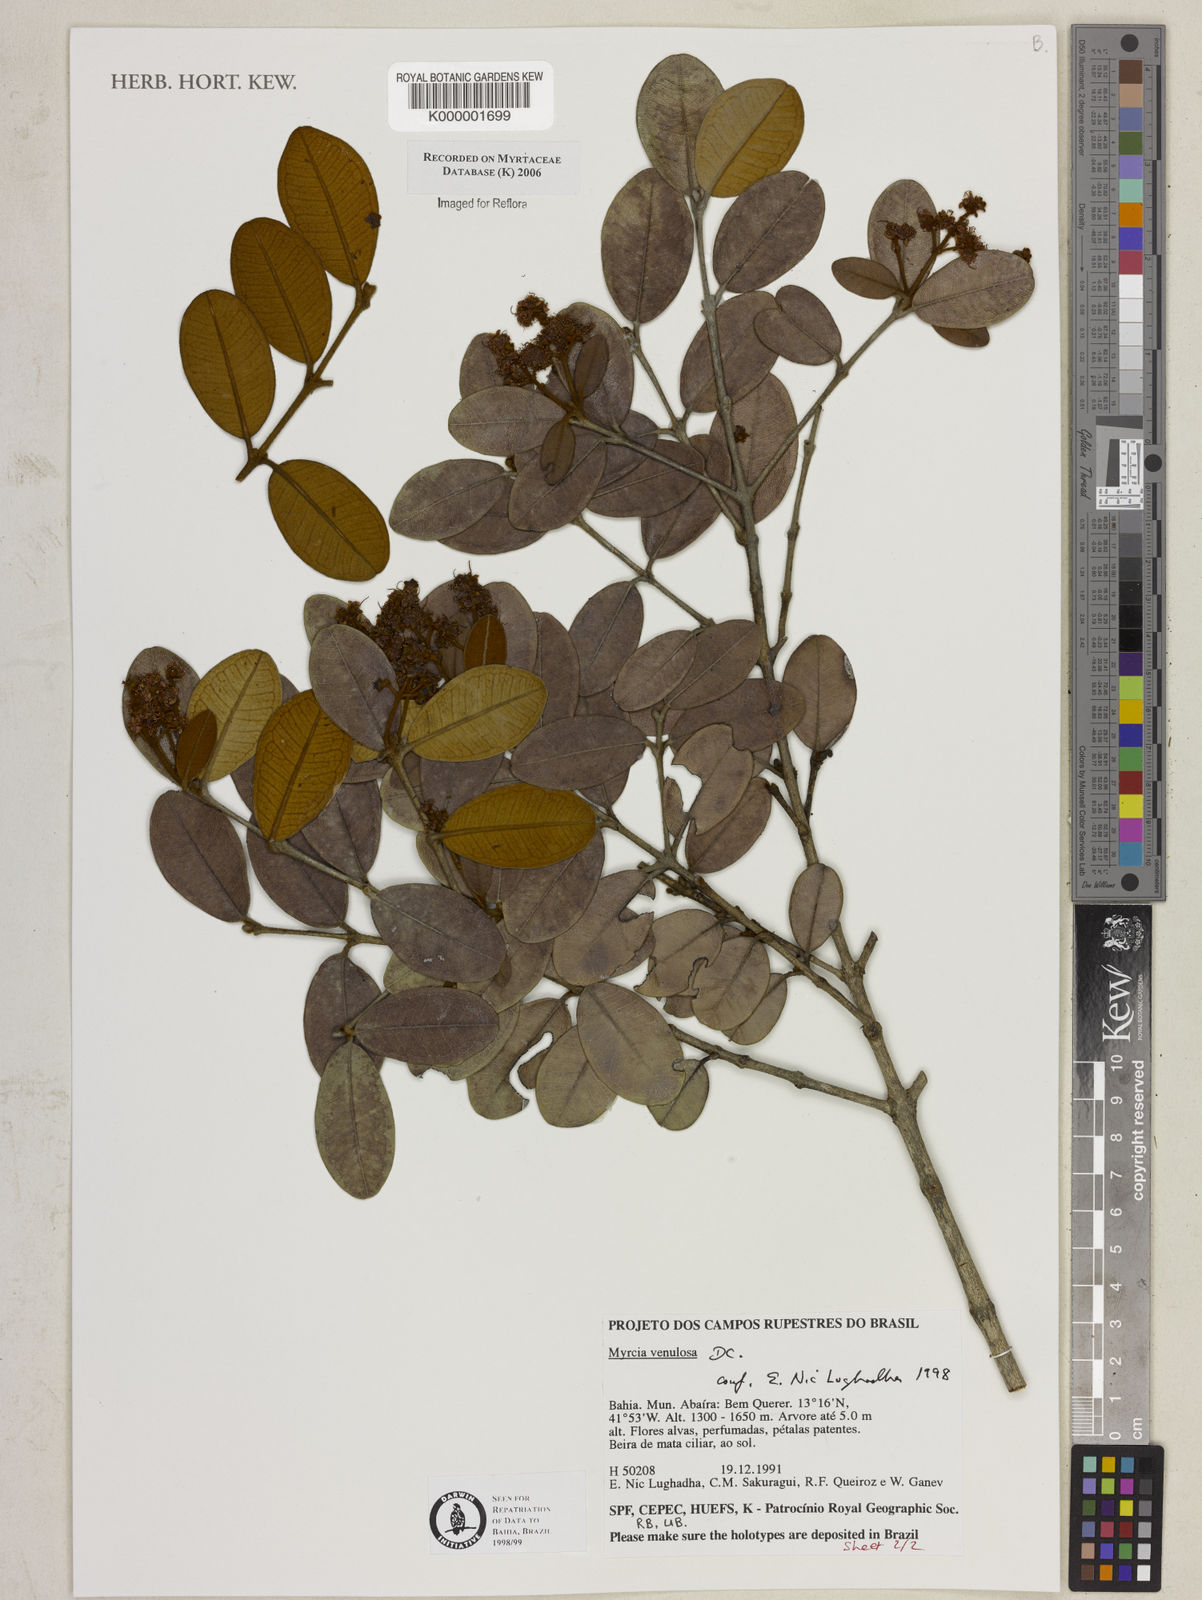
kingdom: Plantae
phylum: Tracheophyta
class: Magnoliopsida
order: Myrtales
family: Myrtaceae
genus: Myrcia
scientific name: Myrcia venulosa
